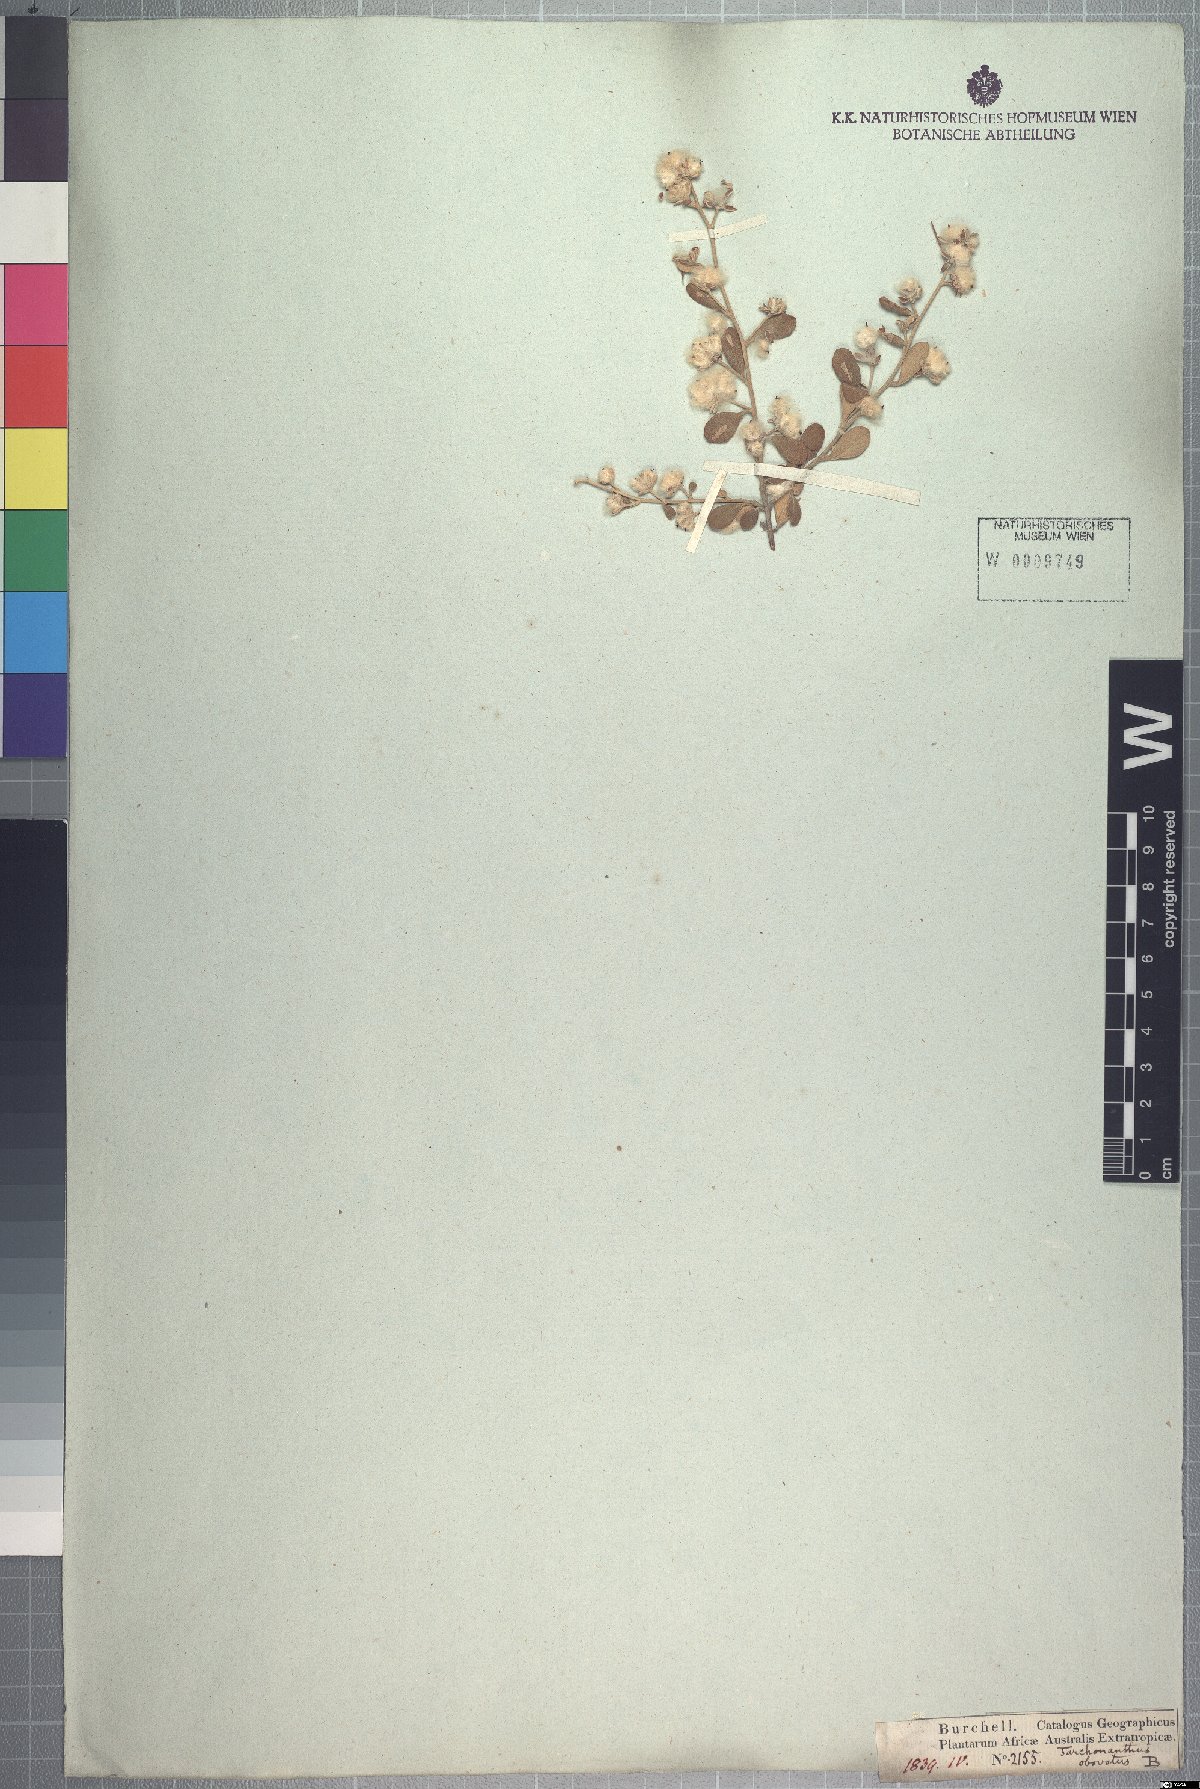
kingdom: Plantae
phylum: Tracheophyta
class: Magnoliopsida
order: Asterales
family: Asteraceae
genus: Tarchonanthus
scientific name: Tarchonanthus obovatus
